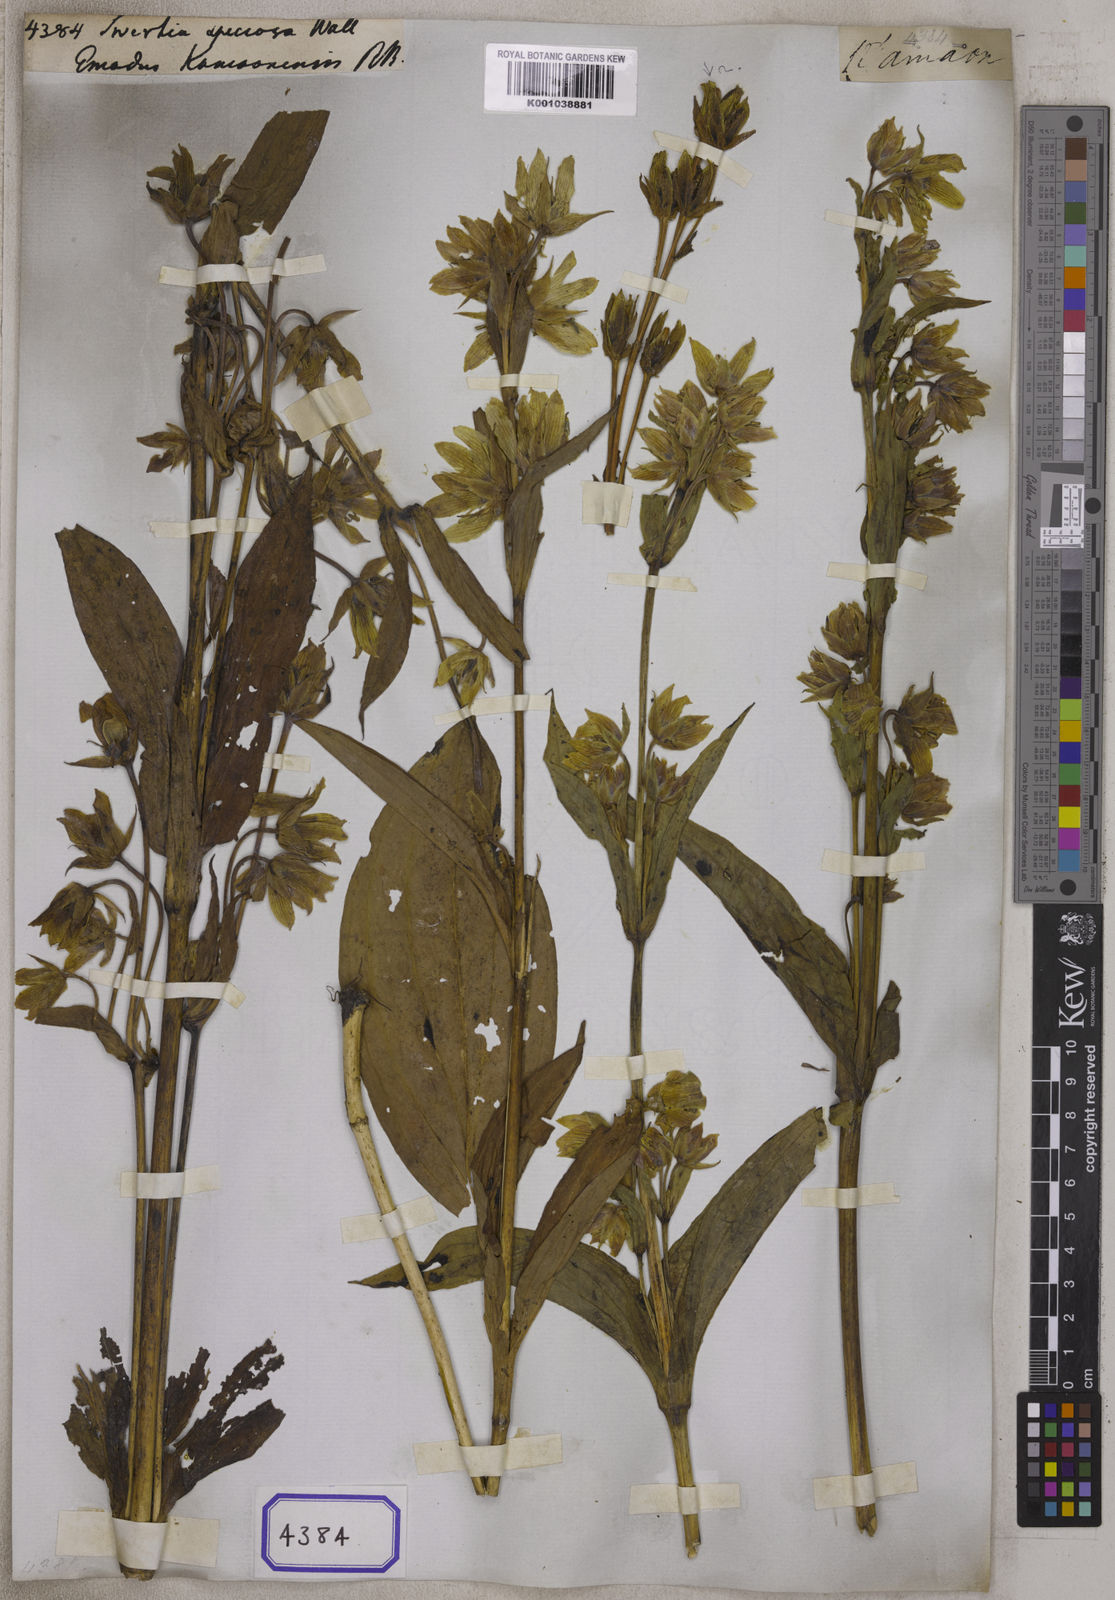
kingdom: Plantae
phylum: Tracheophyta
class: Magnoliopsida
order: Gentianales
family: Gentianaceae
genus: Swertia
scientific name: Swertia
